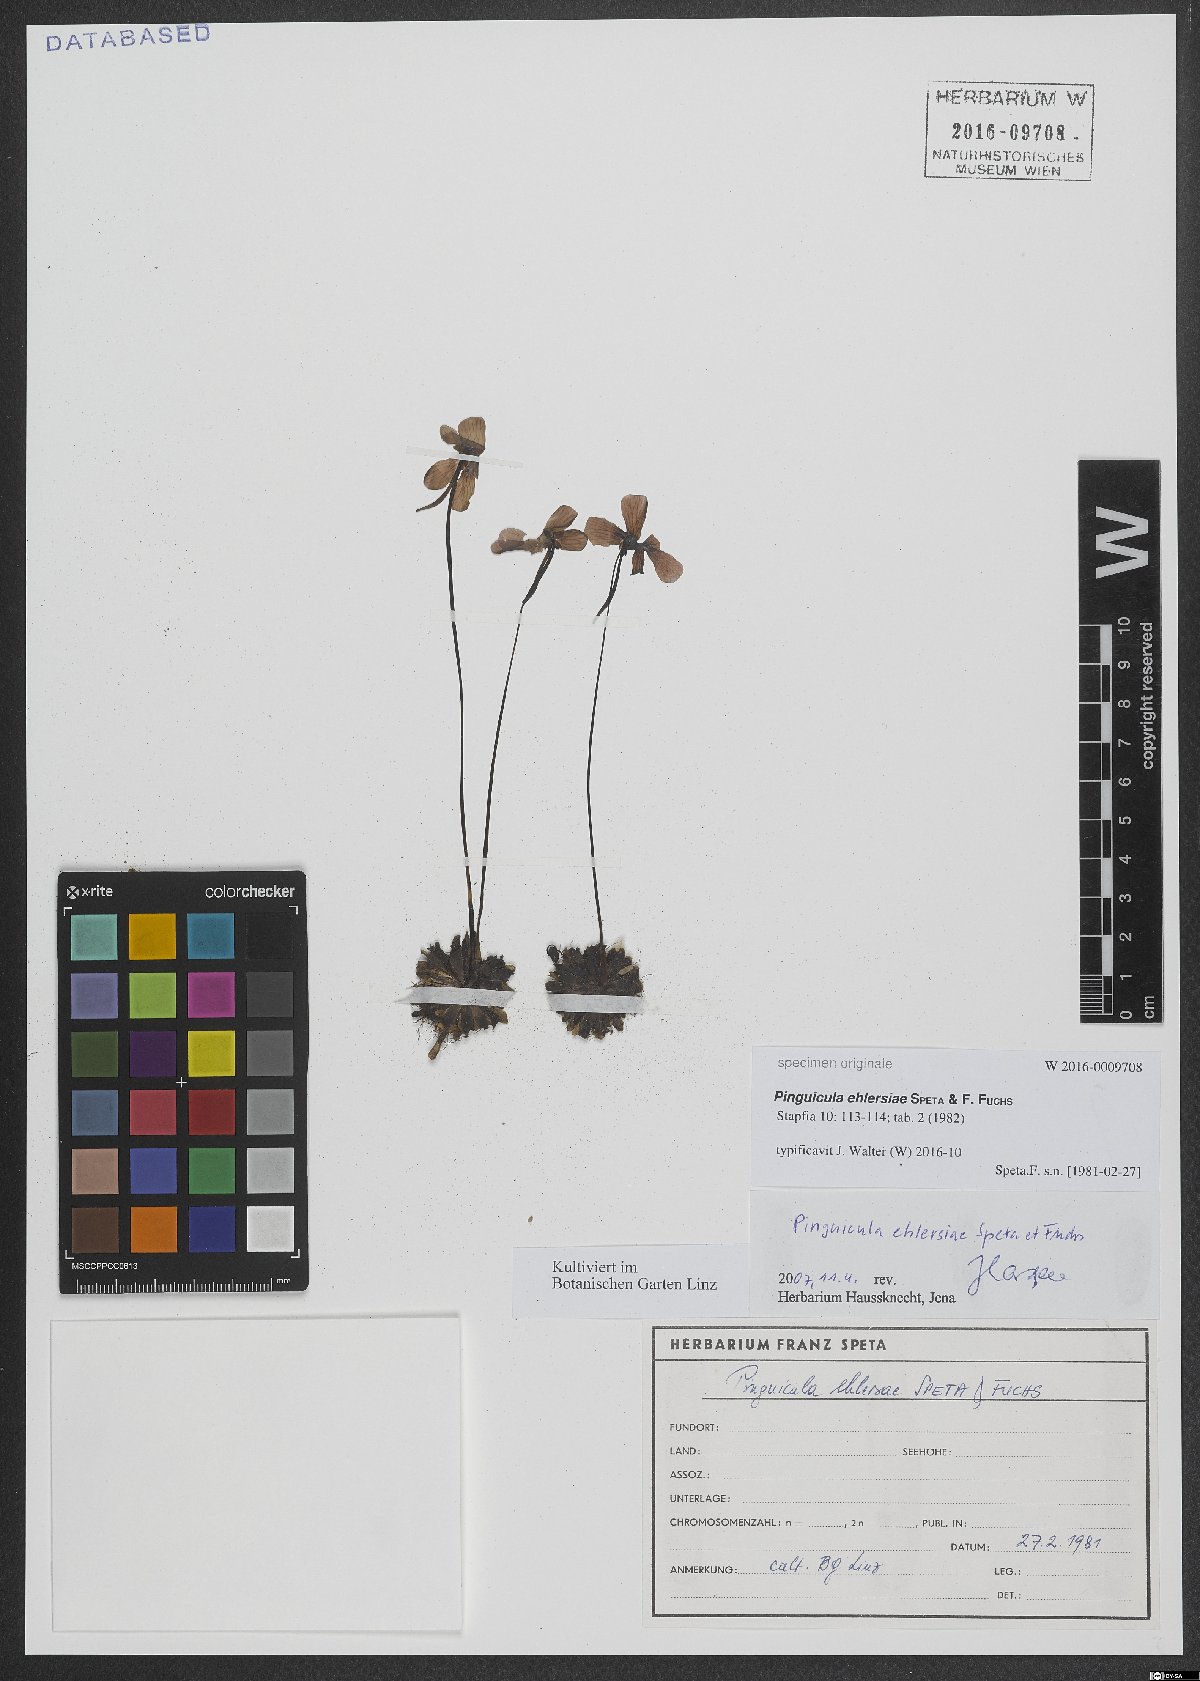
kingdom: Plantae
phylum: Tracheophyta
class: Magnoliopsida
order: Lamiales
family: Lentibulariaceae
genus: Pinguicula
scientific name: Pinguicula ehlersiae
